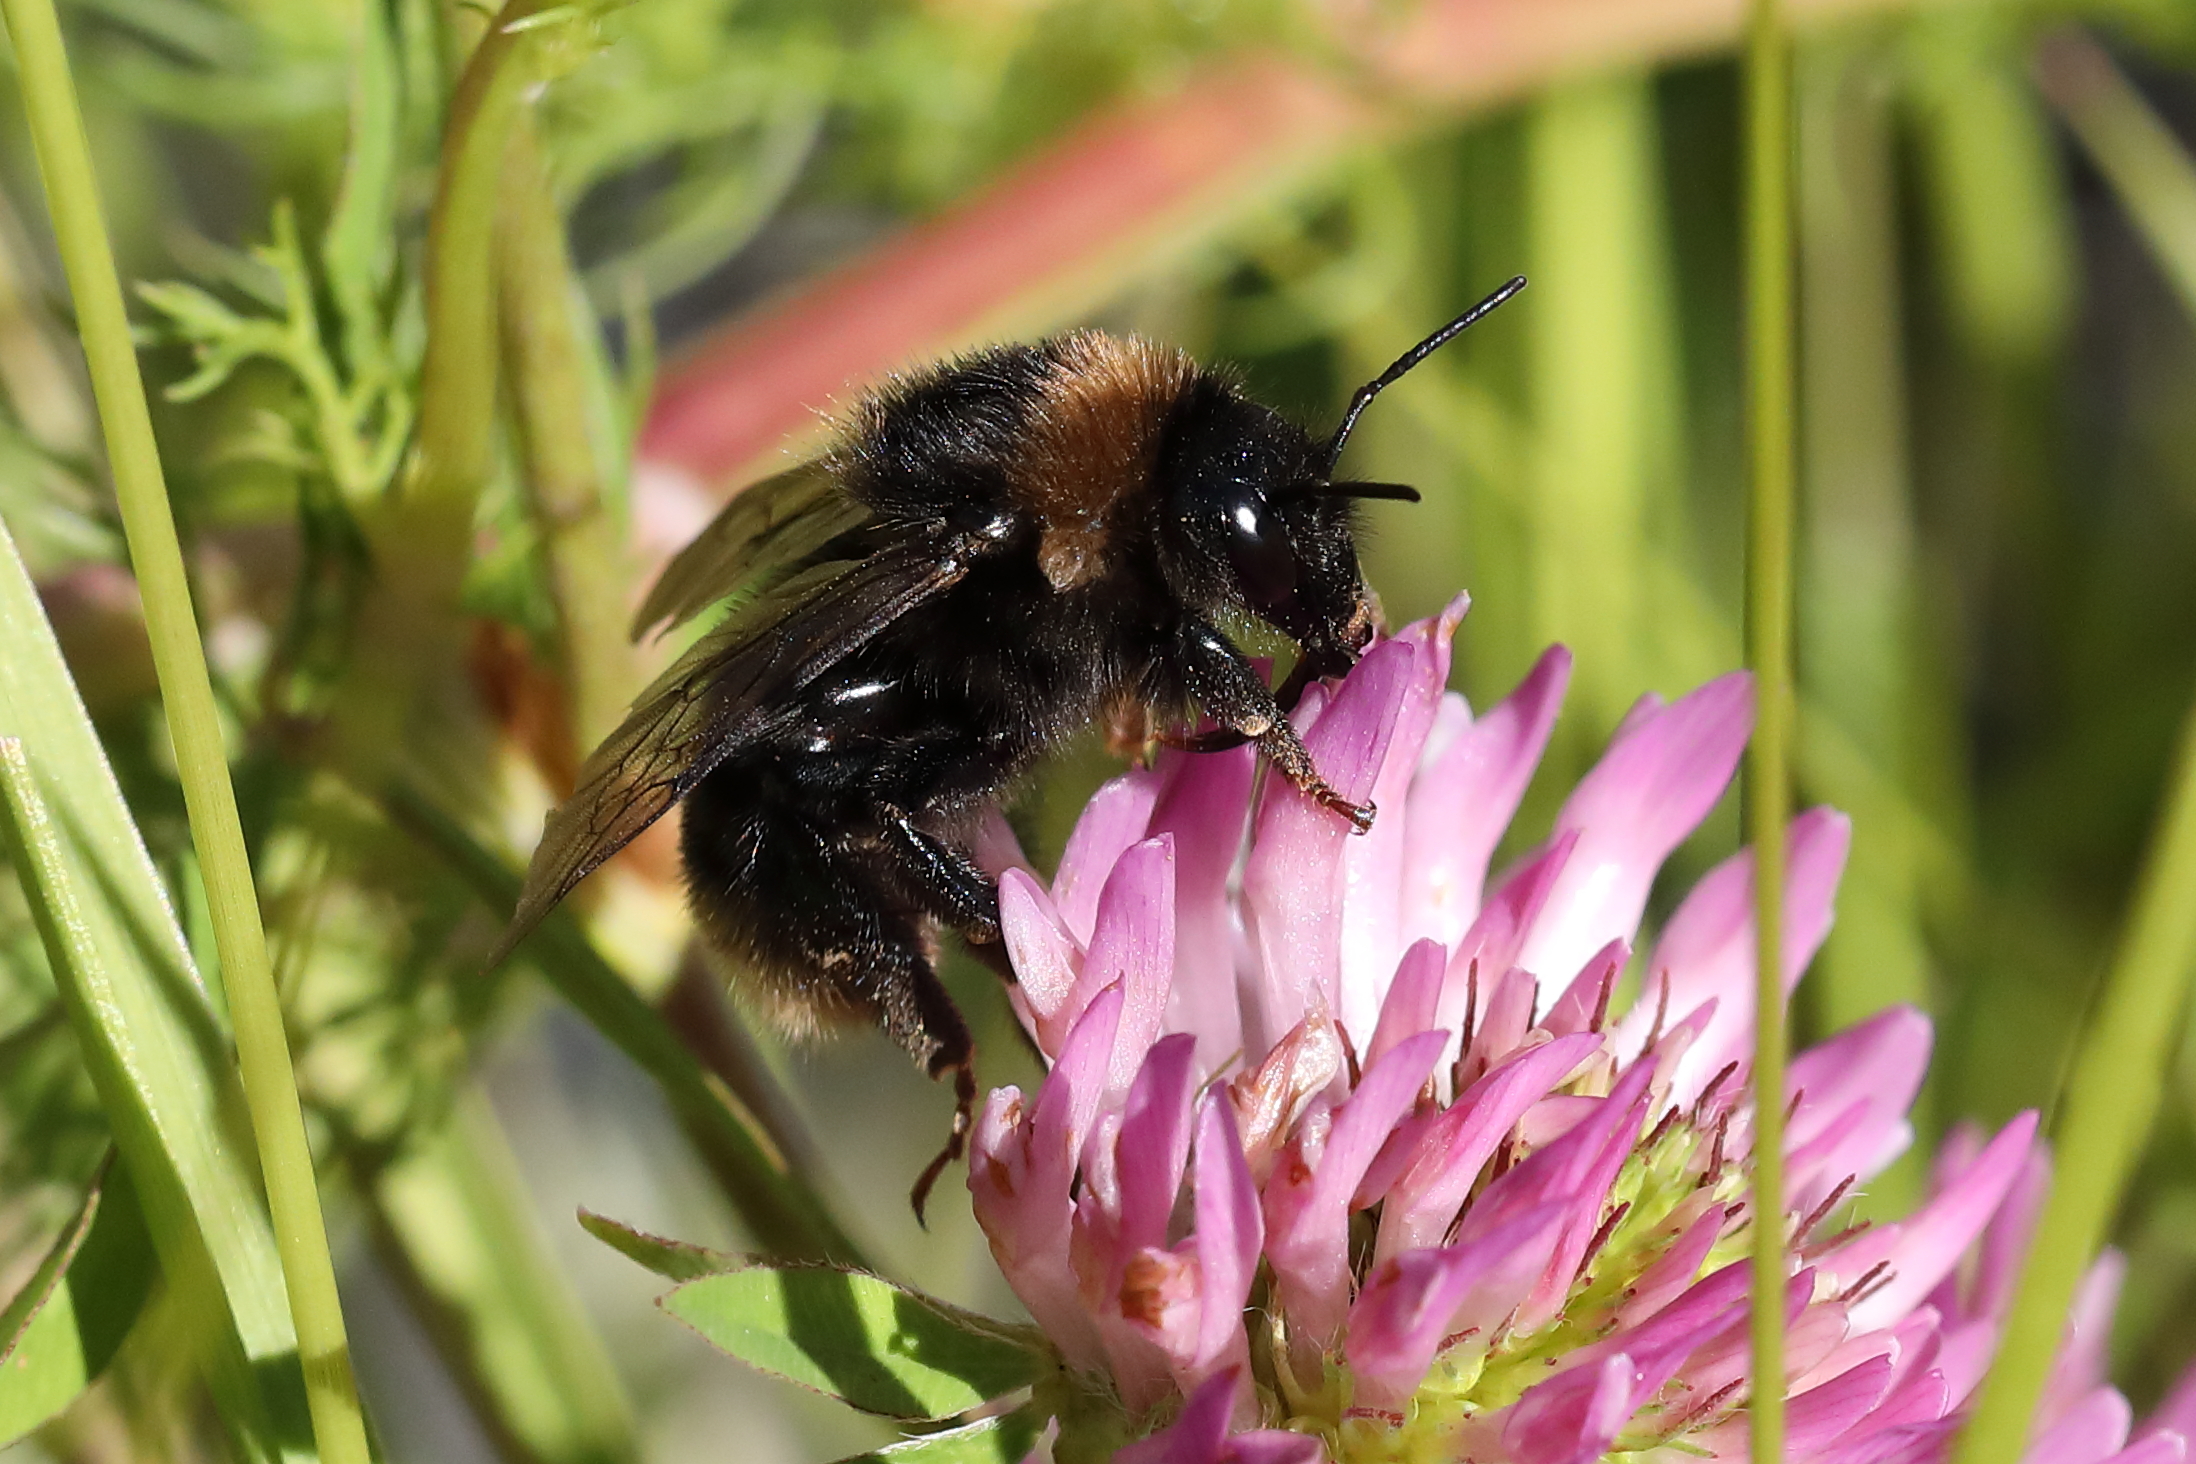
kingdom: Animalia
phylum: Arthropoda
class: Insecta
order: Hymenoptera
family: Apidae
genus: Bombus
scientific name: Bombus subterraneus
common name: Short-haired humble-bee
